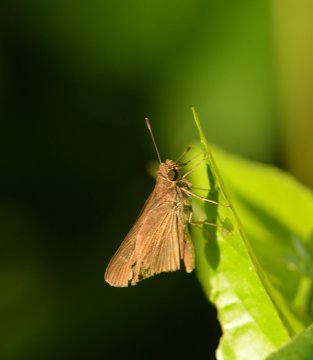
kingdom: Animalia
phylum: Arthropoda
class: Insecta
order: Lepidoptera
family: Hesperiidae
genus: Lerodea
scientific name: Lerodea eufala
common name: Eufala Skipper
